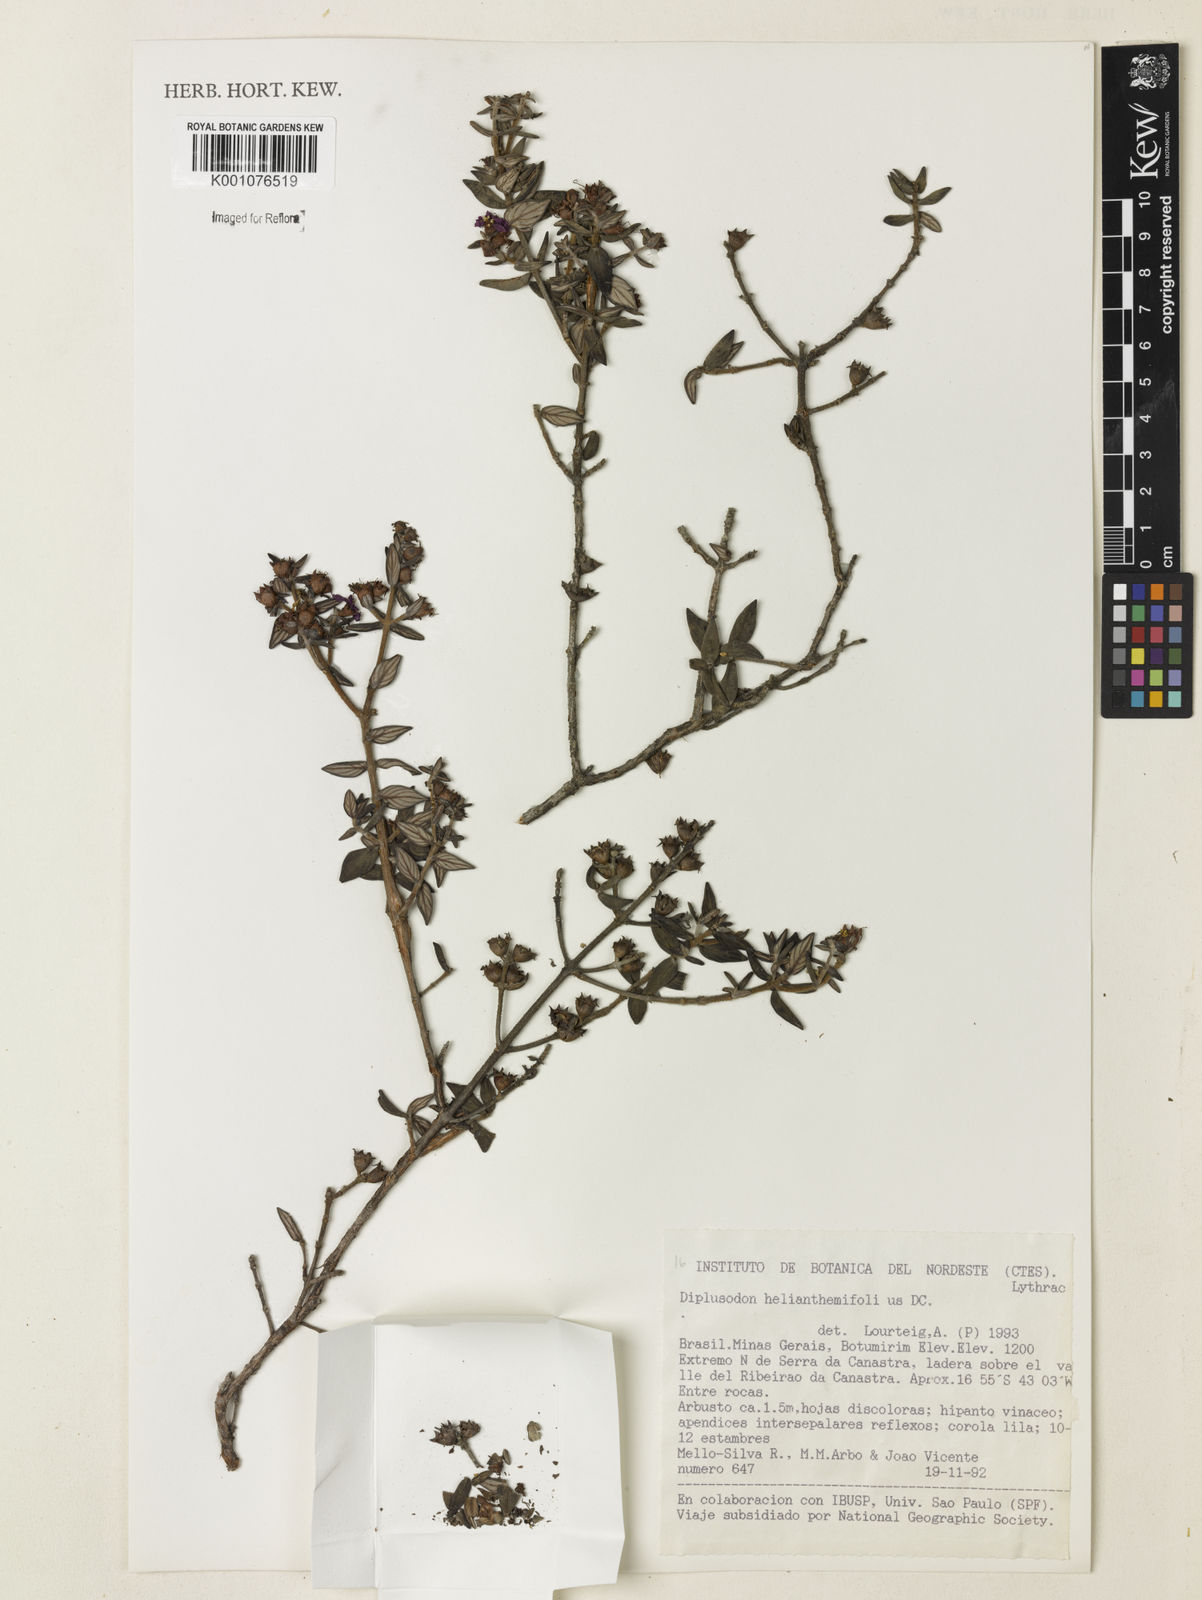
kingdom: Plantae
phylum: Tracheophyta
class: Magnoliopsida
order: Myrtales
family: Lythraceae
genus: Duabanga
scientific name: Duabanga
